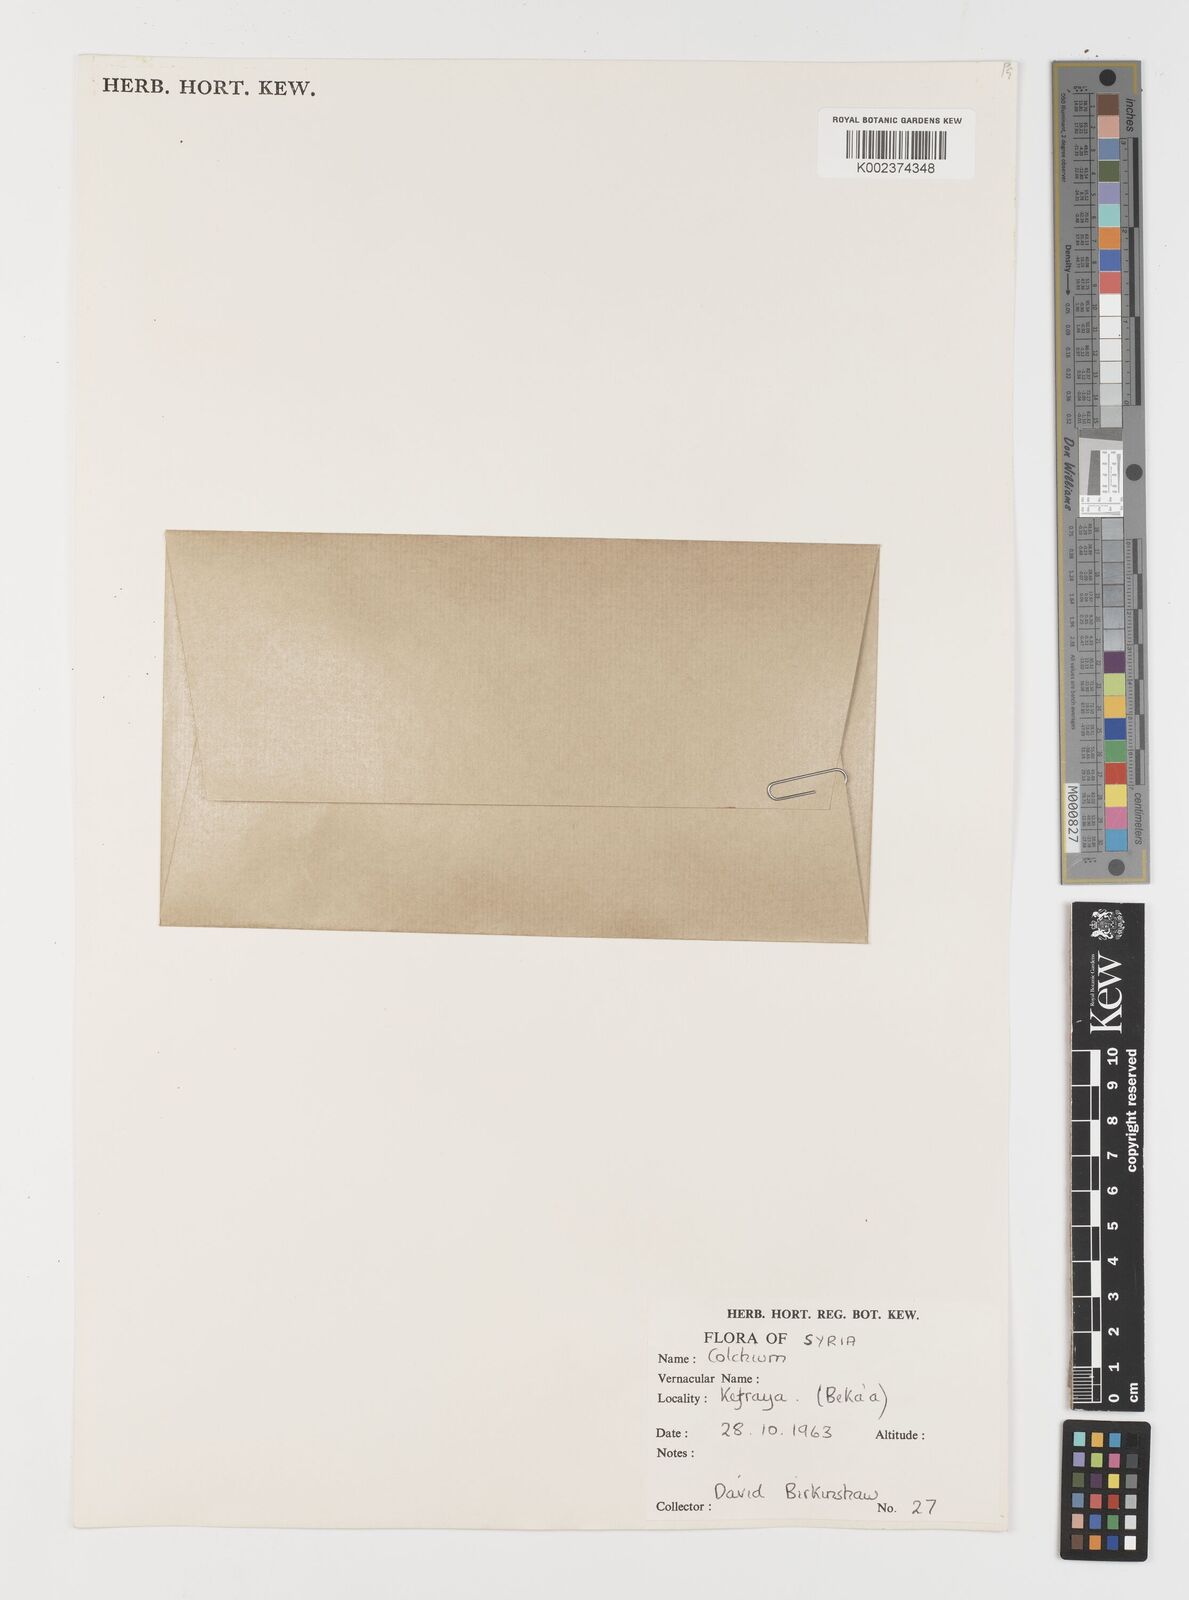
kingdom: Plantae
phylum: Tracheophyta
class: Liliopsida
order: Liliales
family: Colchicaceae
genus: Colchicum
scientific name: Colchicum
